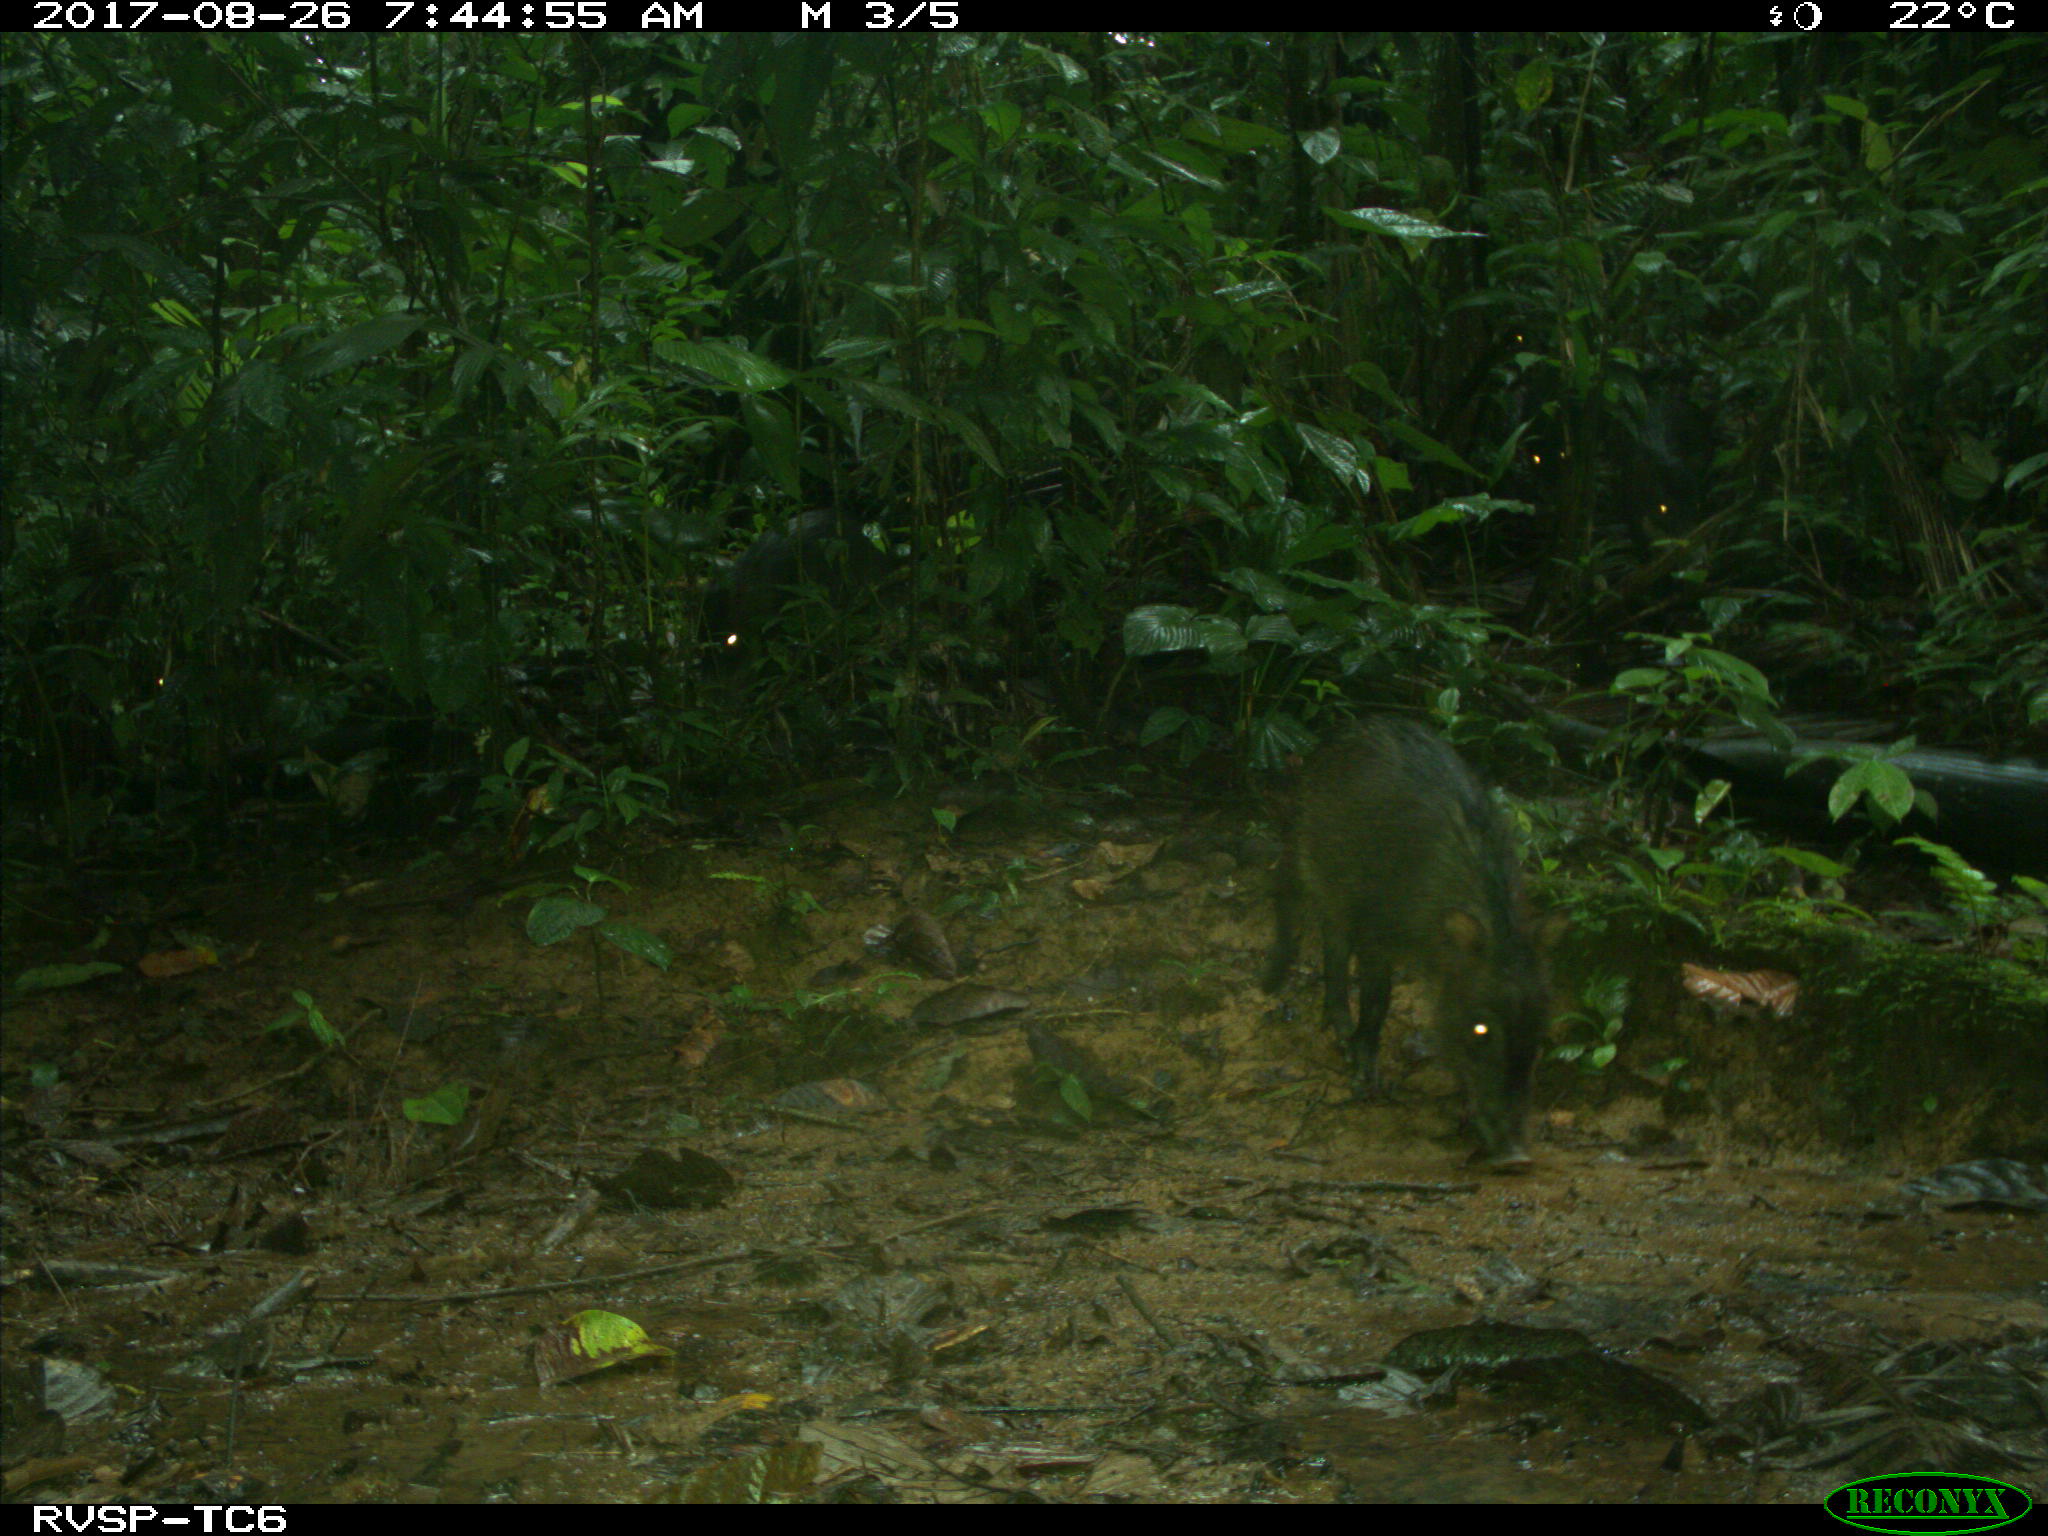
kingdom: Animalia
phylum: Chordata
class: Mammalia
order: Artiodactyla
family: Tayassuidae
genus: Tayassu
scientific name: Tayassu pecari
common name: White-lipped peccary
